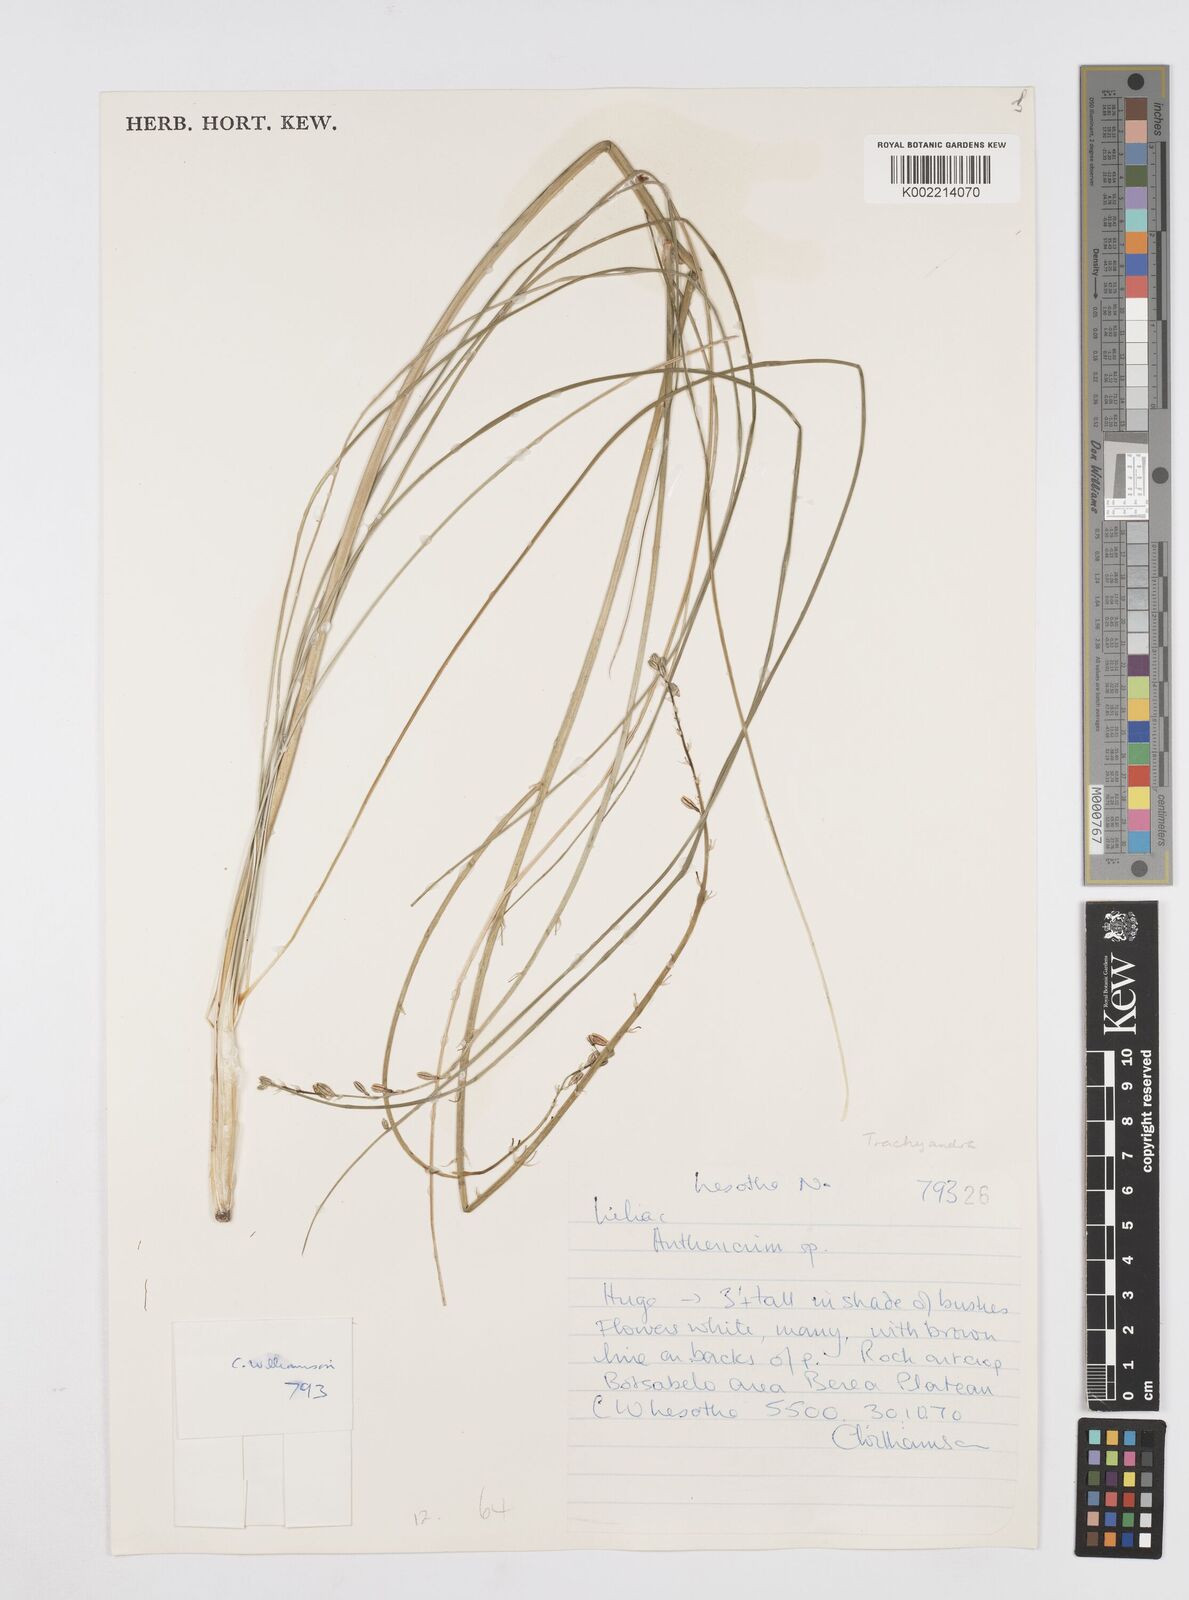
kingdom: Plantae
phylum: Tracheophyta
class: Liliopsida
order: Asparagales
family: Asphodelaceae
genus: Trachyandra
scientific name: Trachyandra
